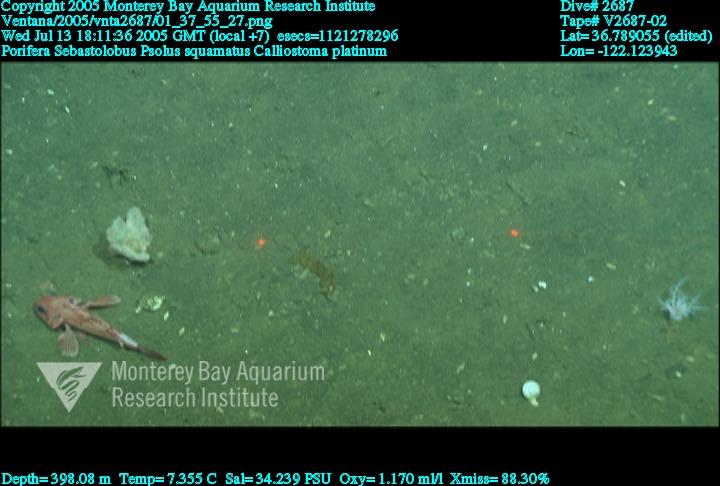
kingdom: Animalia
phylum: Porifera
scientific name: Porifera
